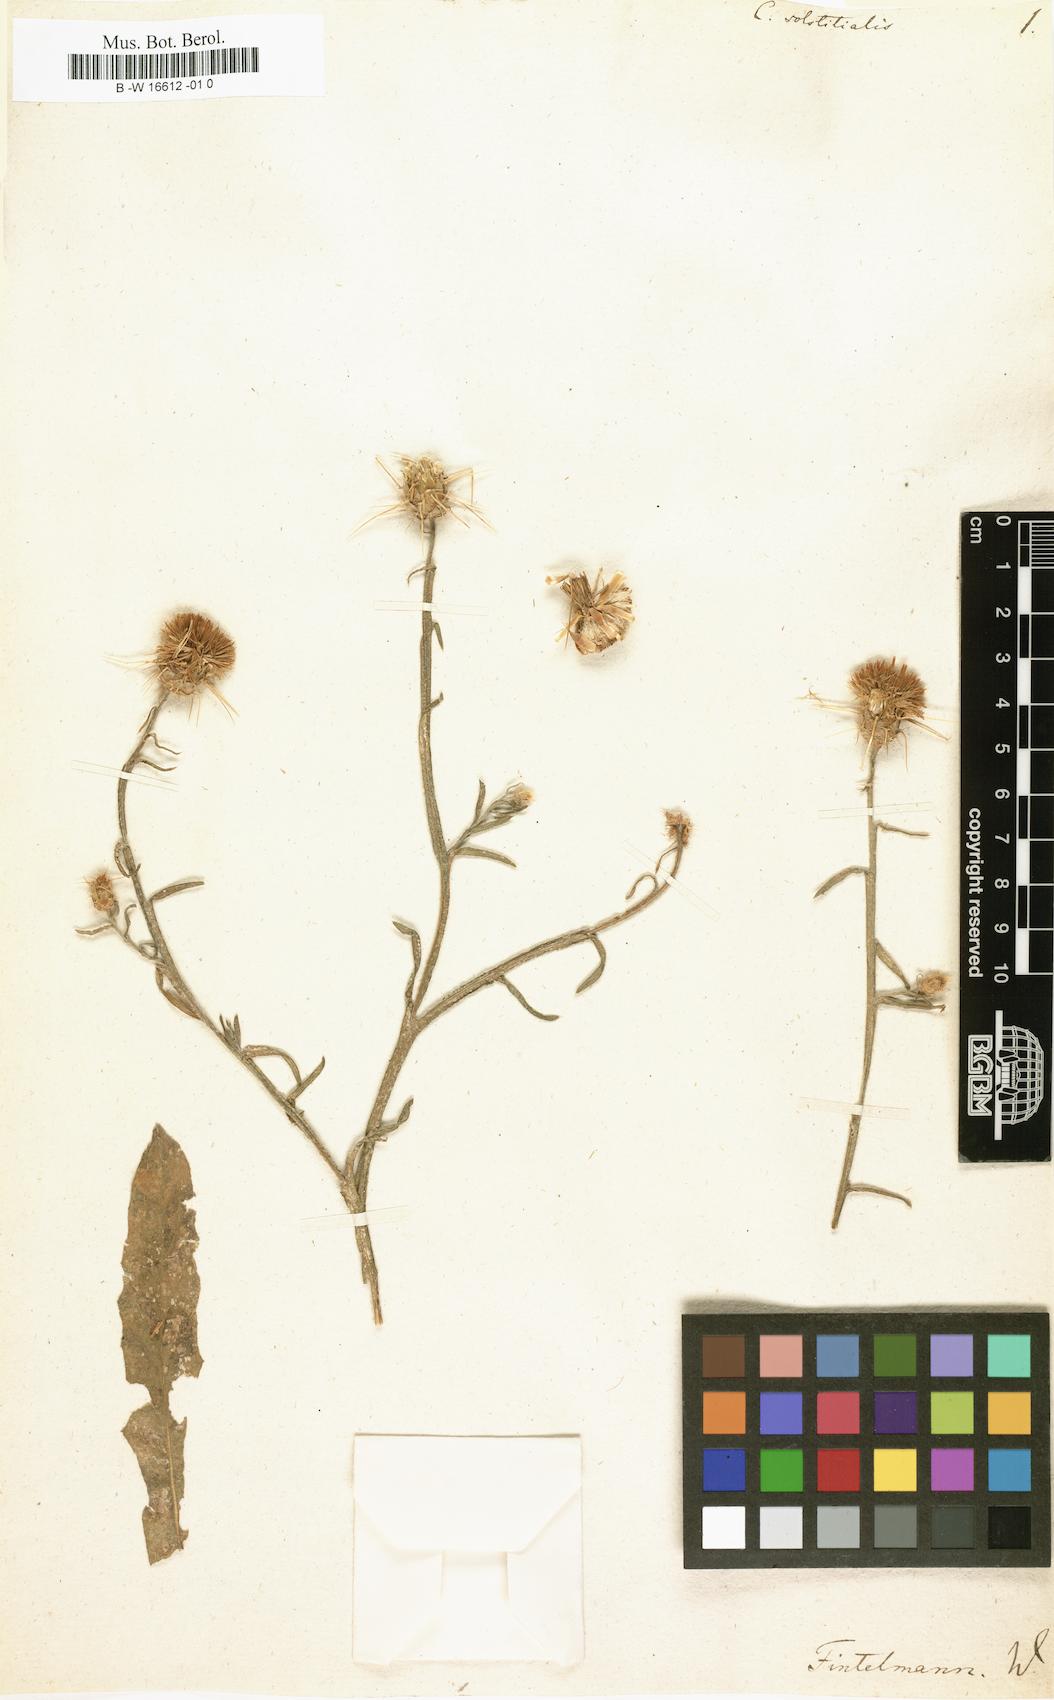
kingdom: Plantae
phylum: Tracheophyta
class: Magnoliopsida
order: Asterales
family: Asteraceae
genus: Centaurea
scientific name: Centaurea solstitialis
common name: Yellow star-thistle
